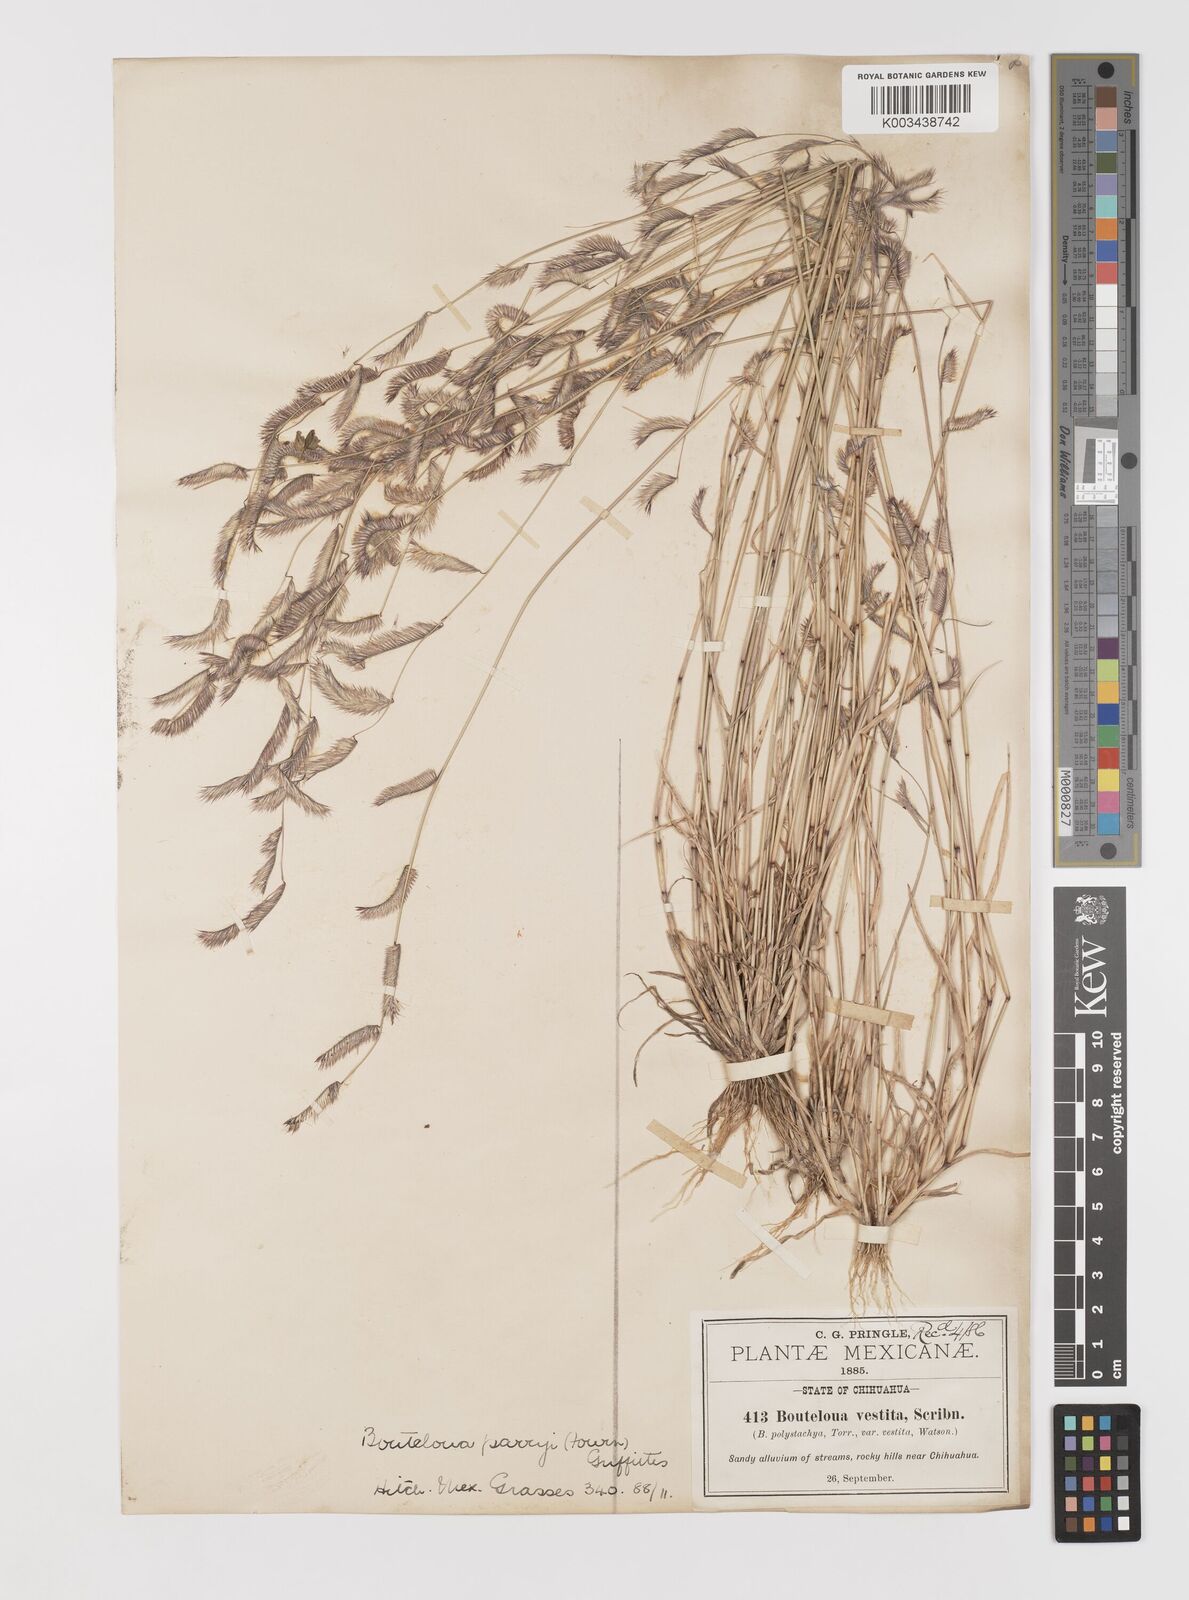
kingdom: Plantae
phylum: Tracheophyta
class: Liliopsida
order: Poales
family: Poaceae
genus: Bouteloua
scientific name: Bouteloua parryi
